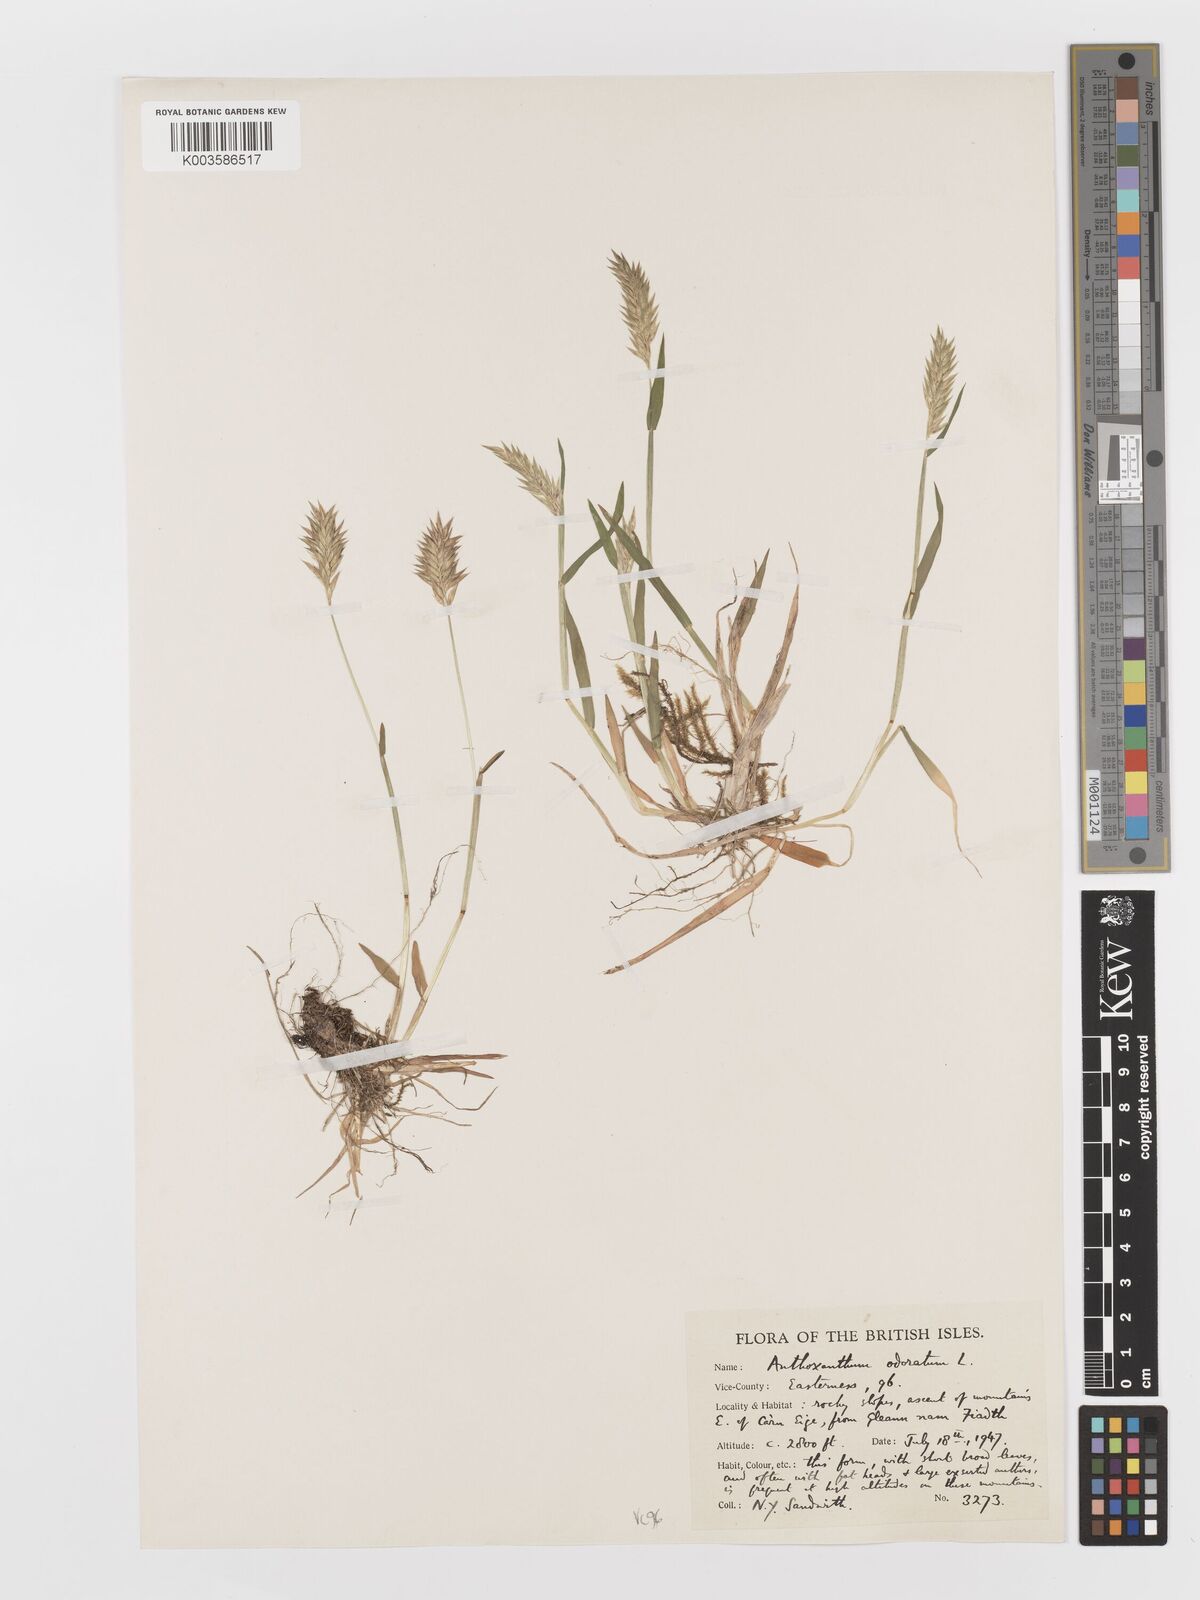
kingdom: Plantae
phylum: Tracheophyta
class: Liliopsida
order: Poales
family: Poaceae
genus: Anthoxanthum
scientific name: Anthoxanthum odoratum
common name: Sweet vernalgrass
